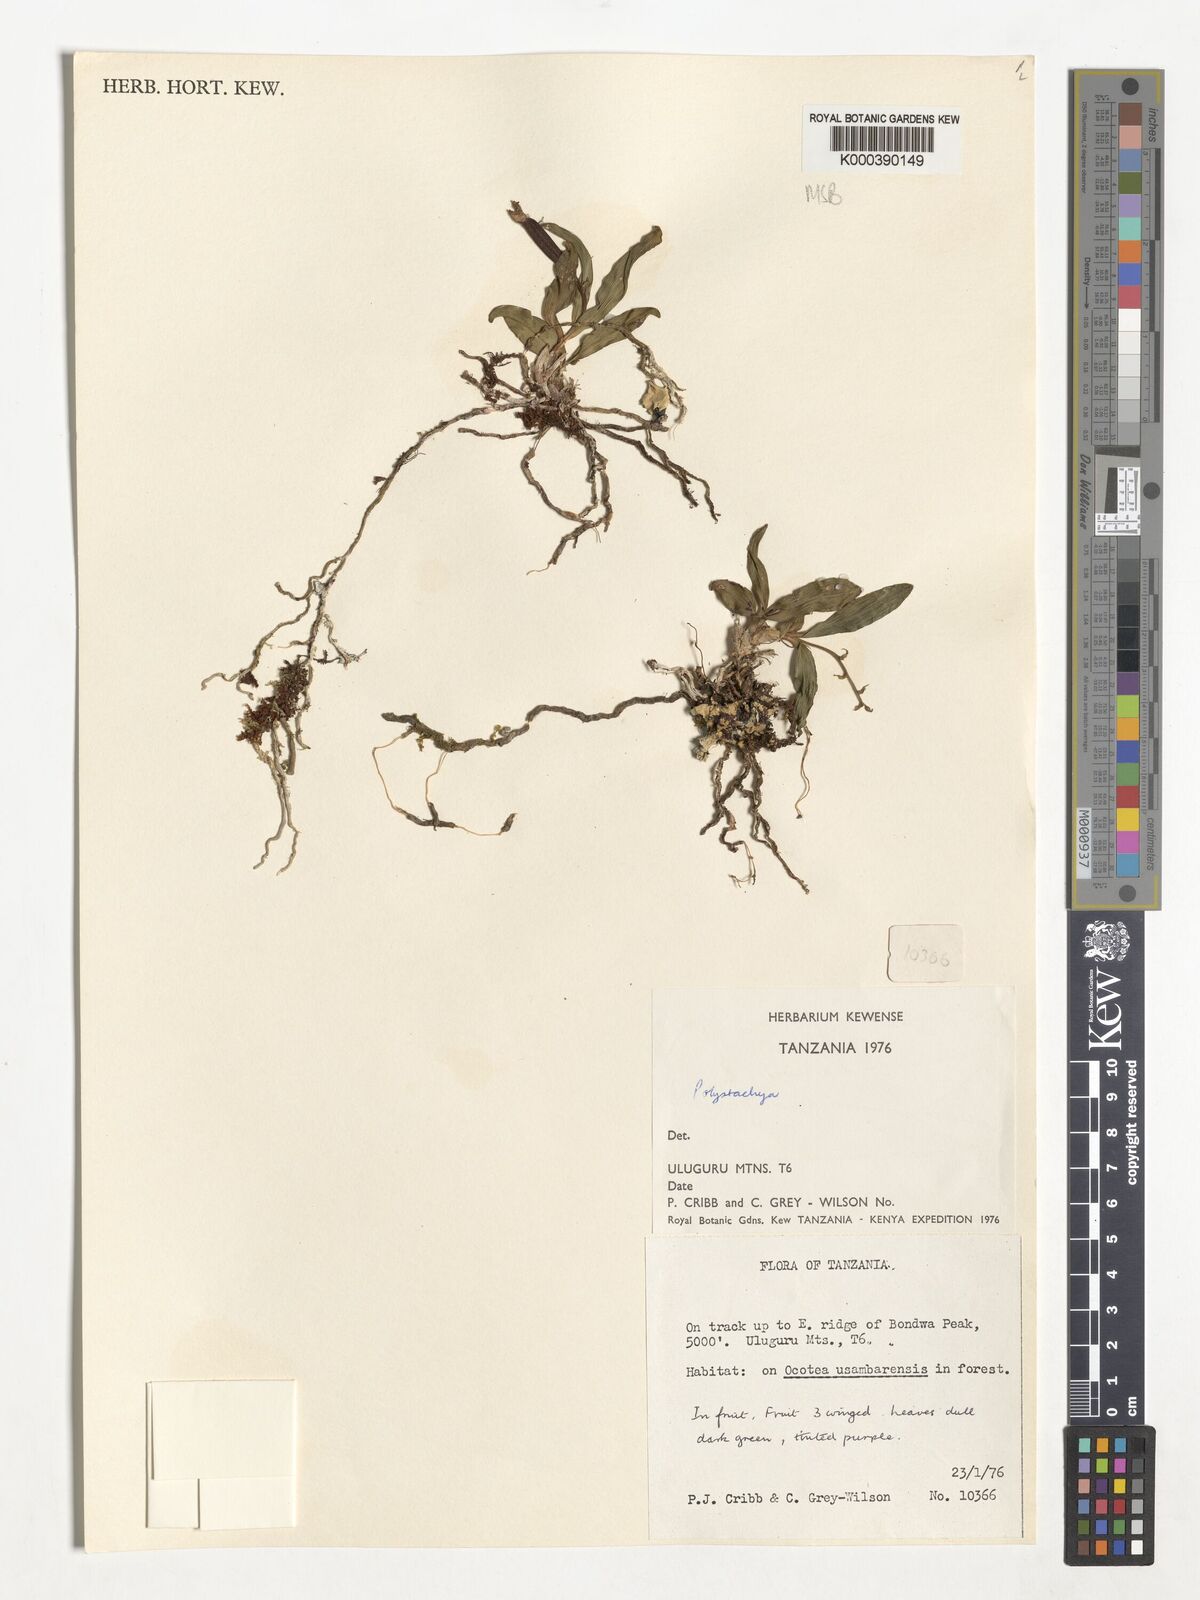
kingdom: Plantae
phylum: Tracheophyta
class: Liliopsida
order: Asparagales
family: Orchidaceae
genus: Polystachya
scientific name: Polystachya heckmanniana
